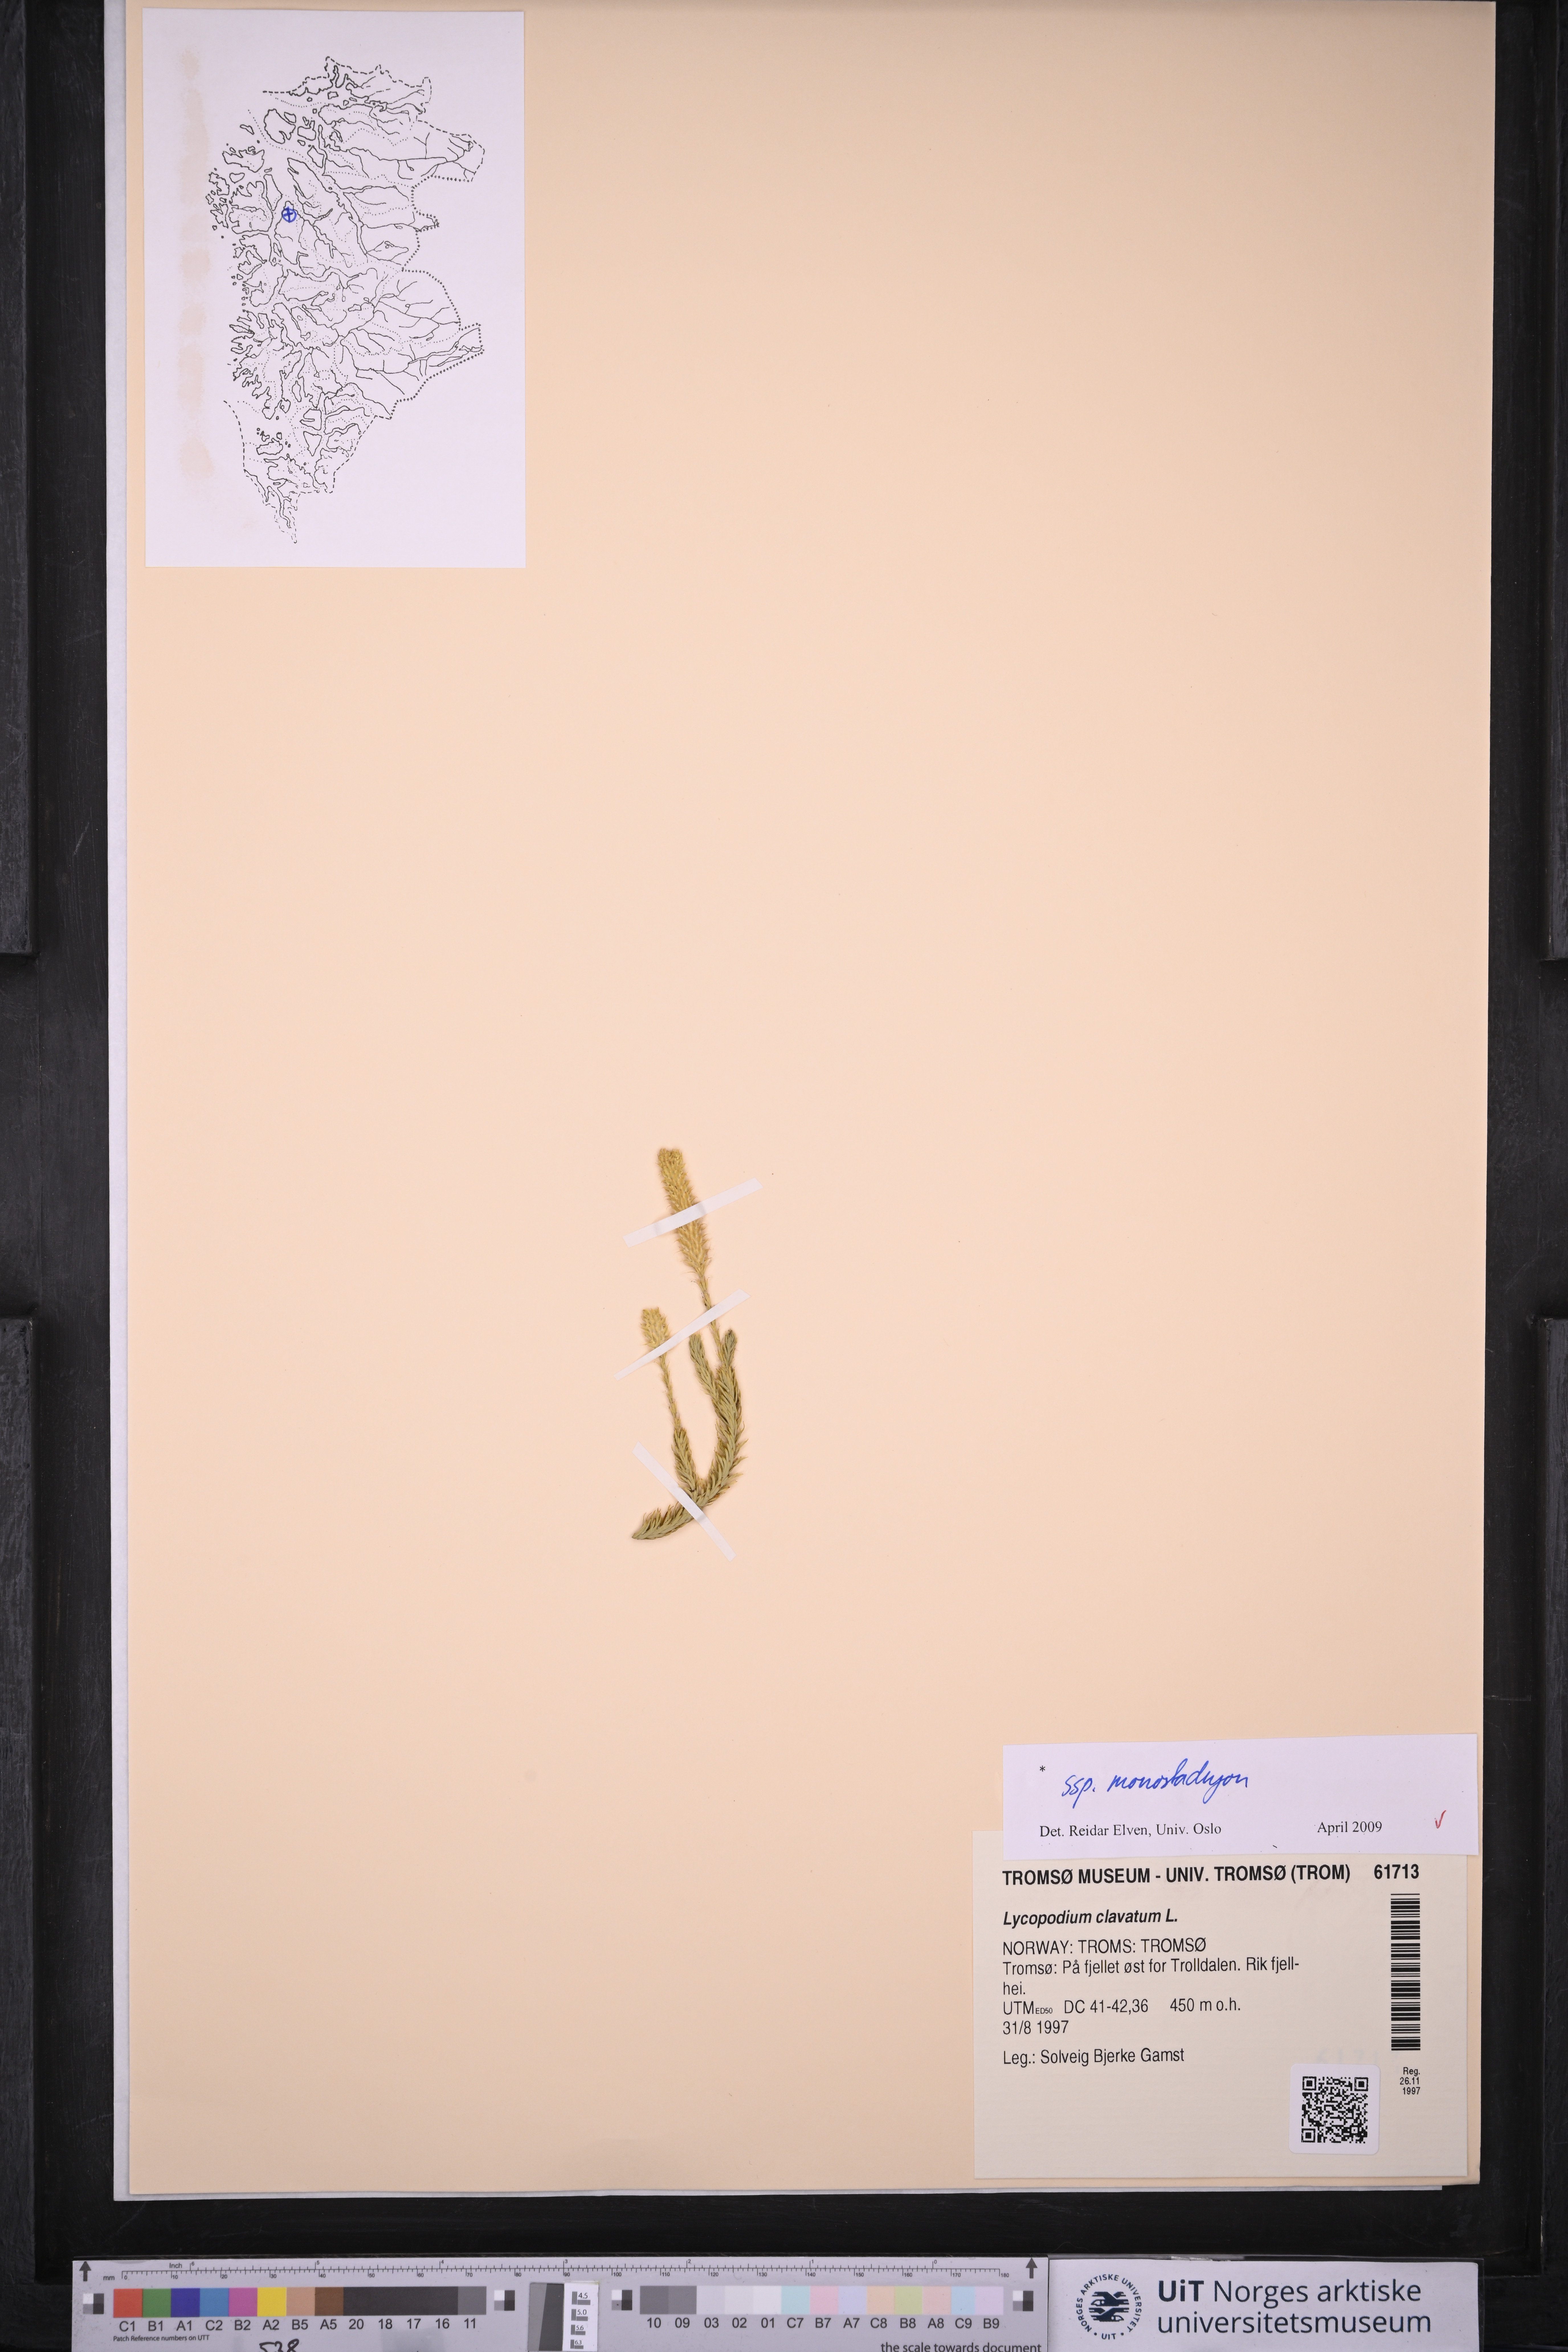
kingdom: Plantae
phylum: Tracheophyta
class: Lycopodiopsida
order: Lycopodiales
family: Lycopodiaceae
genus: Lycopodium
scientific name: Lycopodium lagopus
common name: One-cone clubmoss
